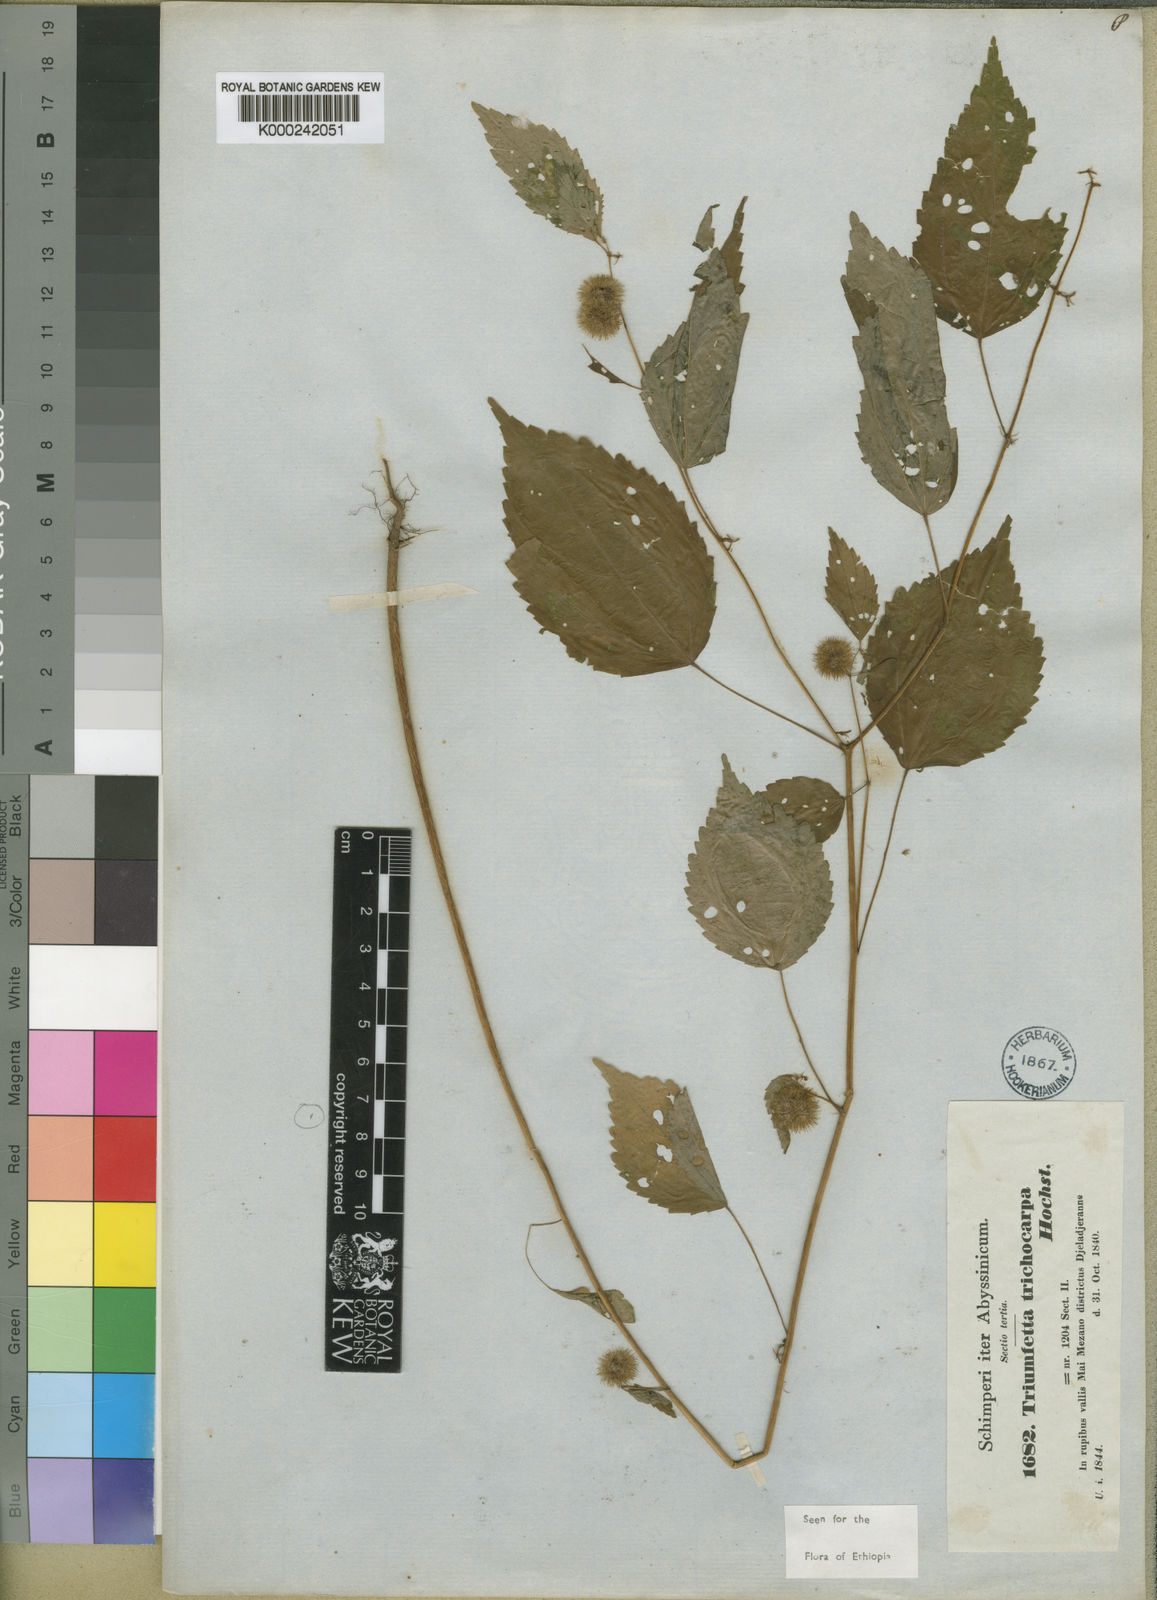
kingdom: Plantae
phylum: Tracheophyta
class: Magnoliopsida
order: Malvales
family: Malvaceae
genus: Triumfetta
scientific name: Triumfetta trichocarpa
